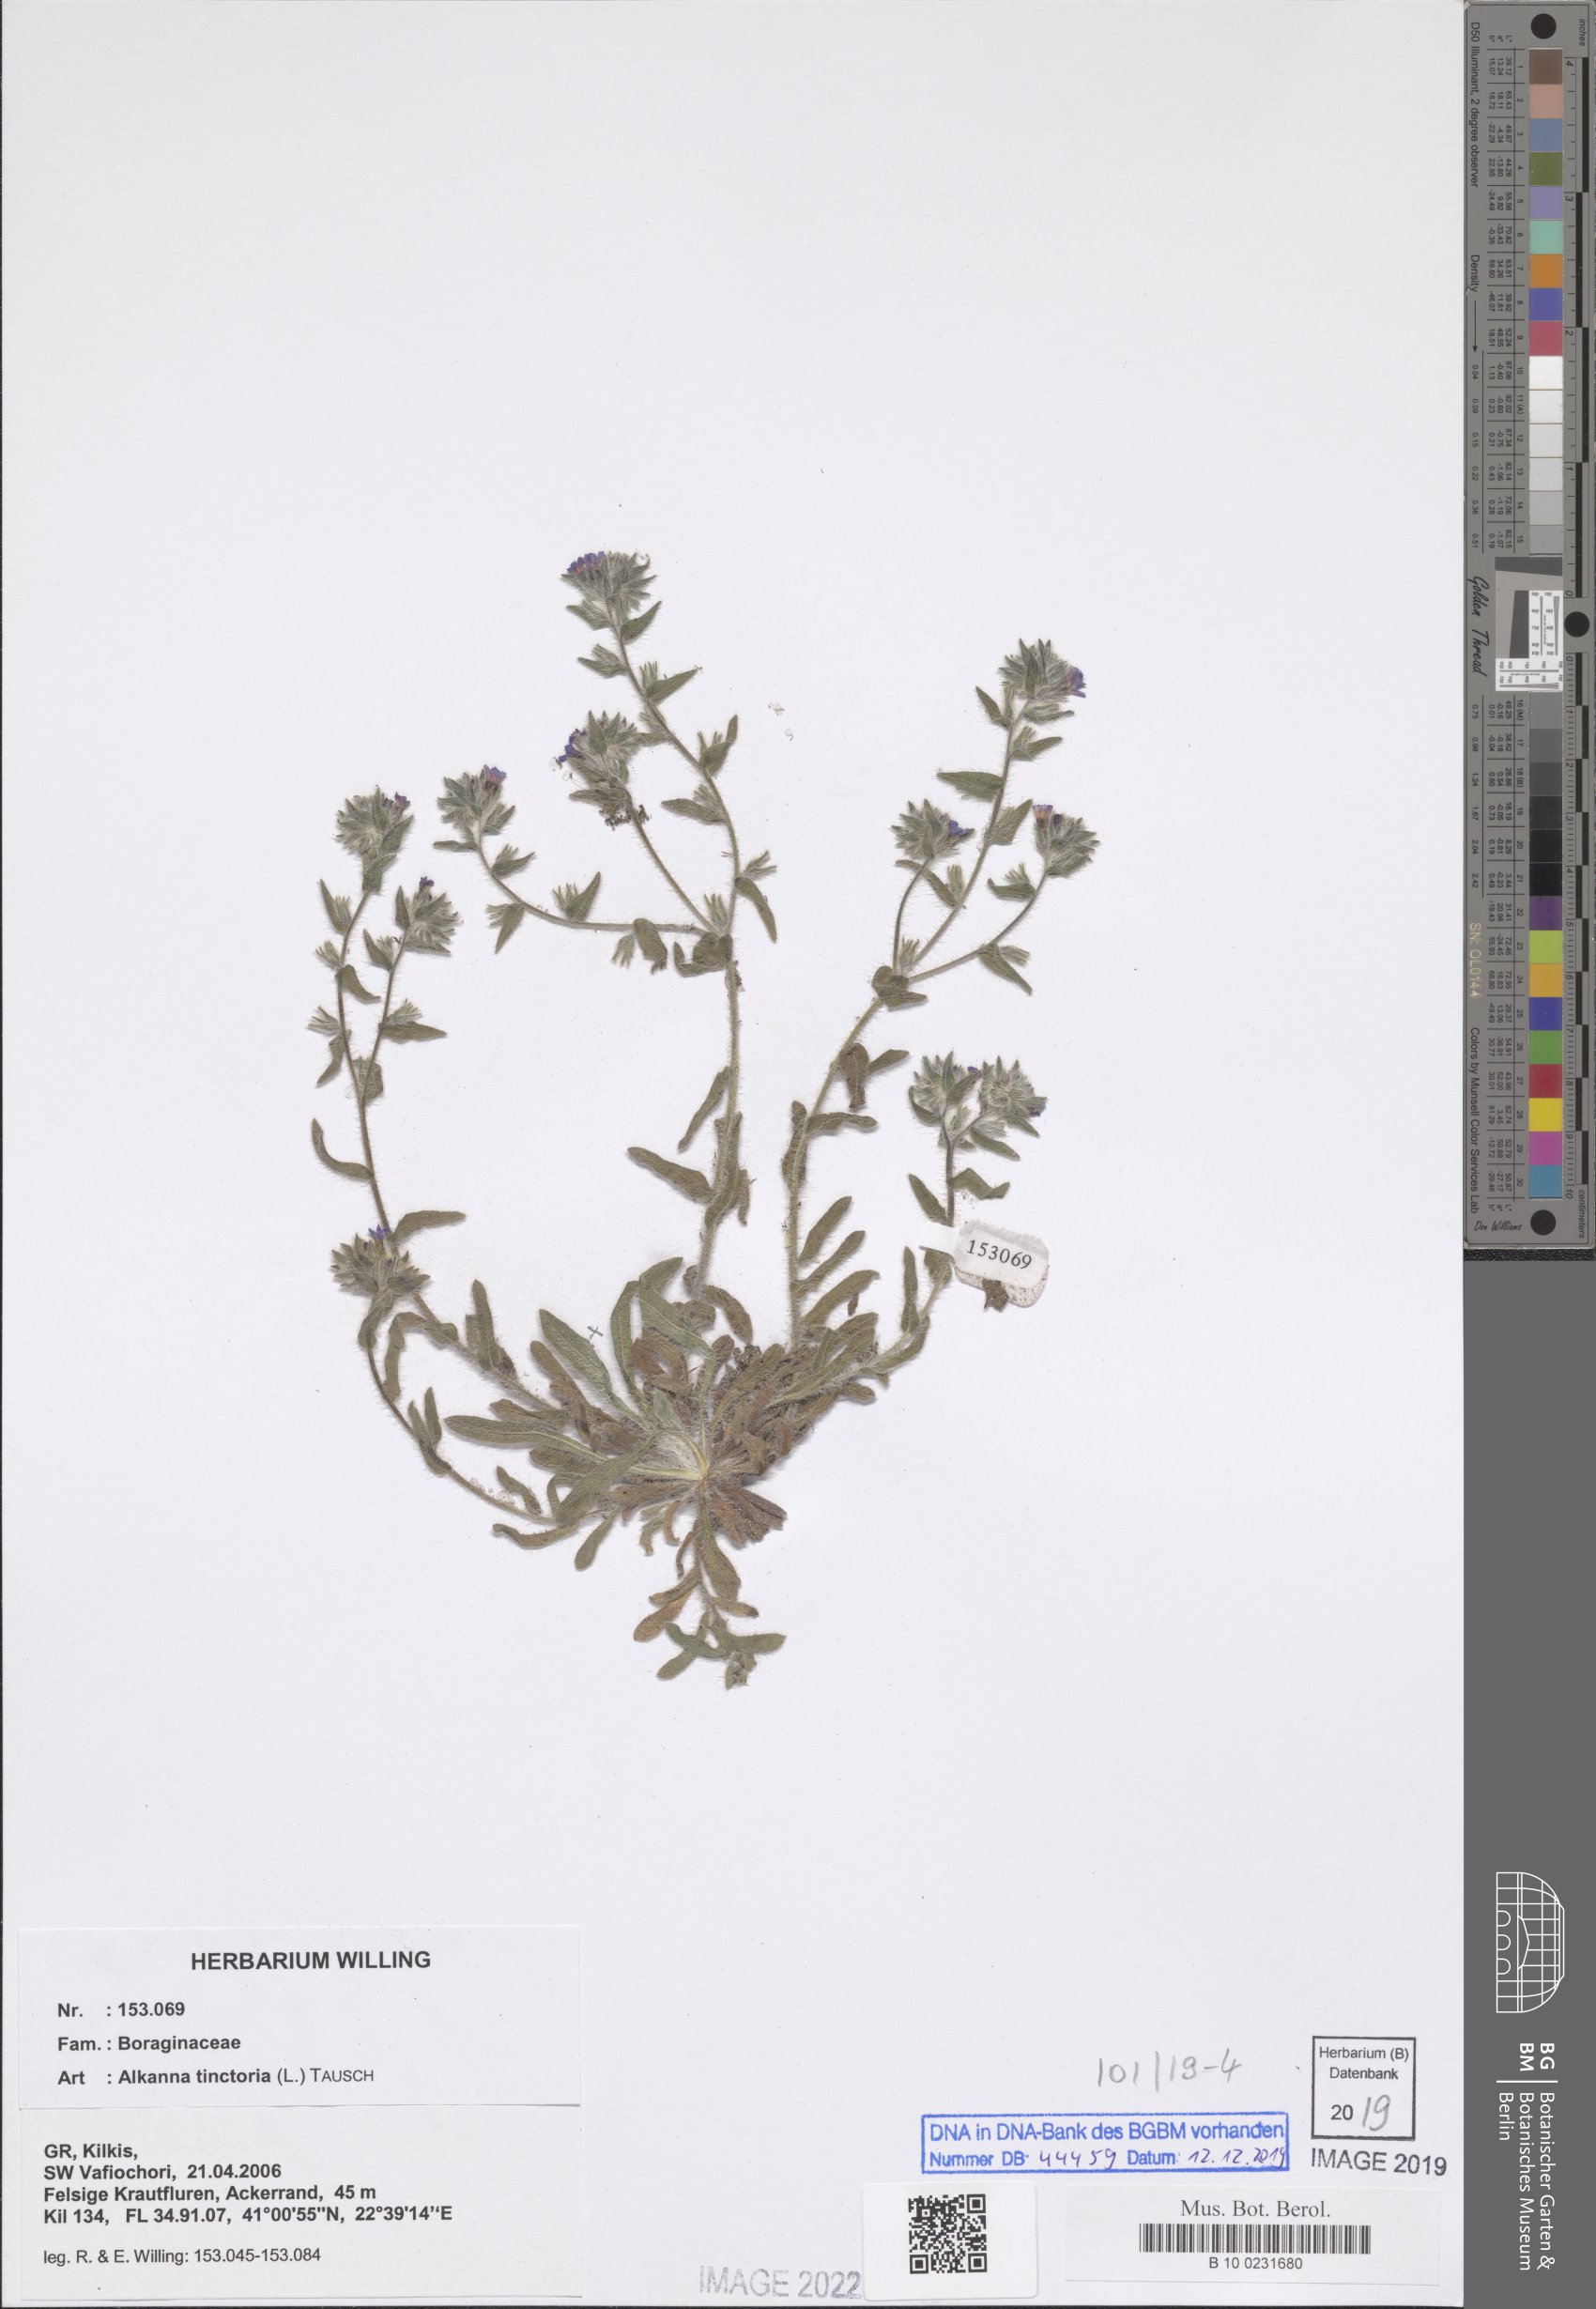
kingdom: Plantae
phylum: Tracheophyta
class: Magnoliopsida
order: Boraginales
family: Boraginaceae
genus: Alkanna
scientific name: Alkanna tinctoria
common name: Dyer's-alkanet
